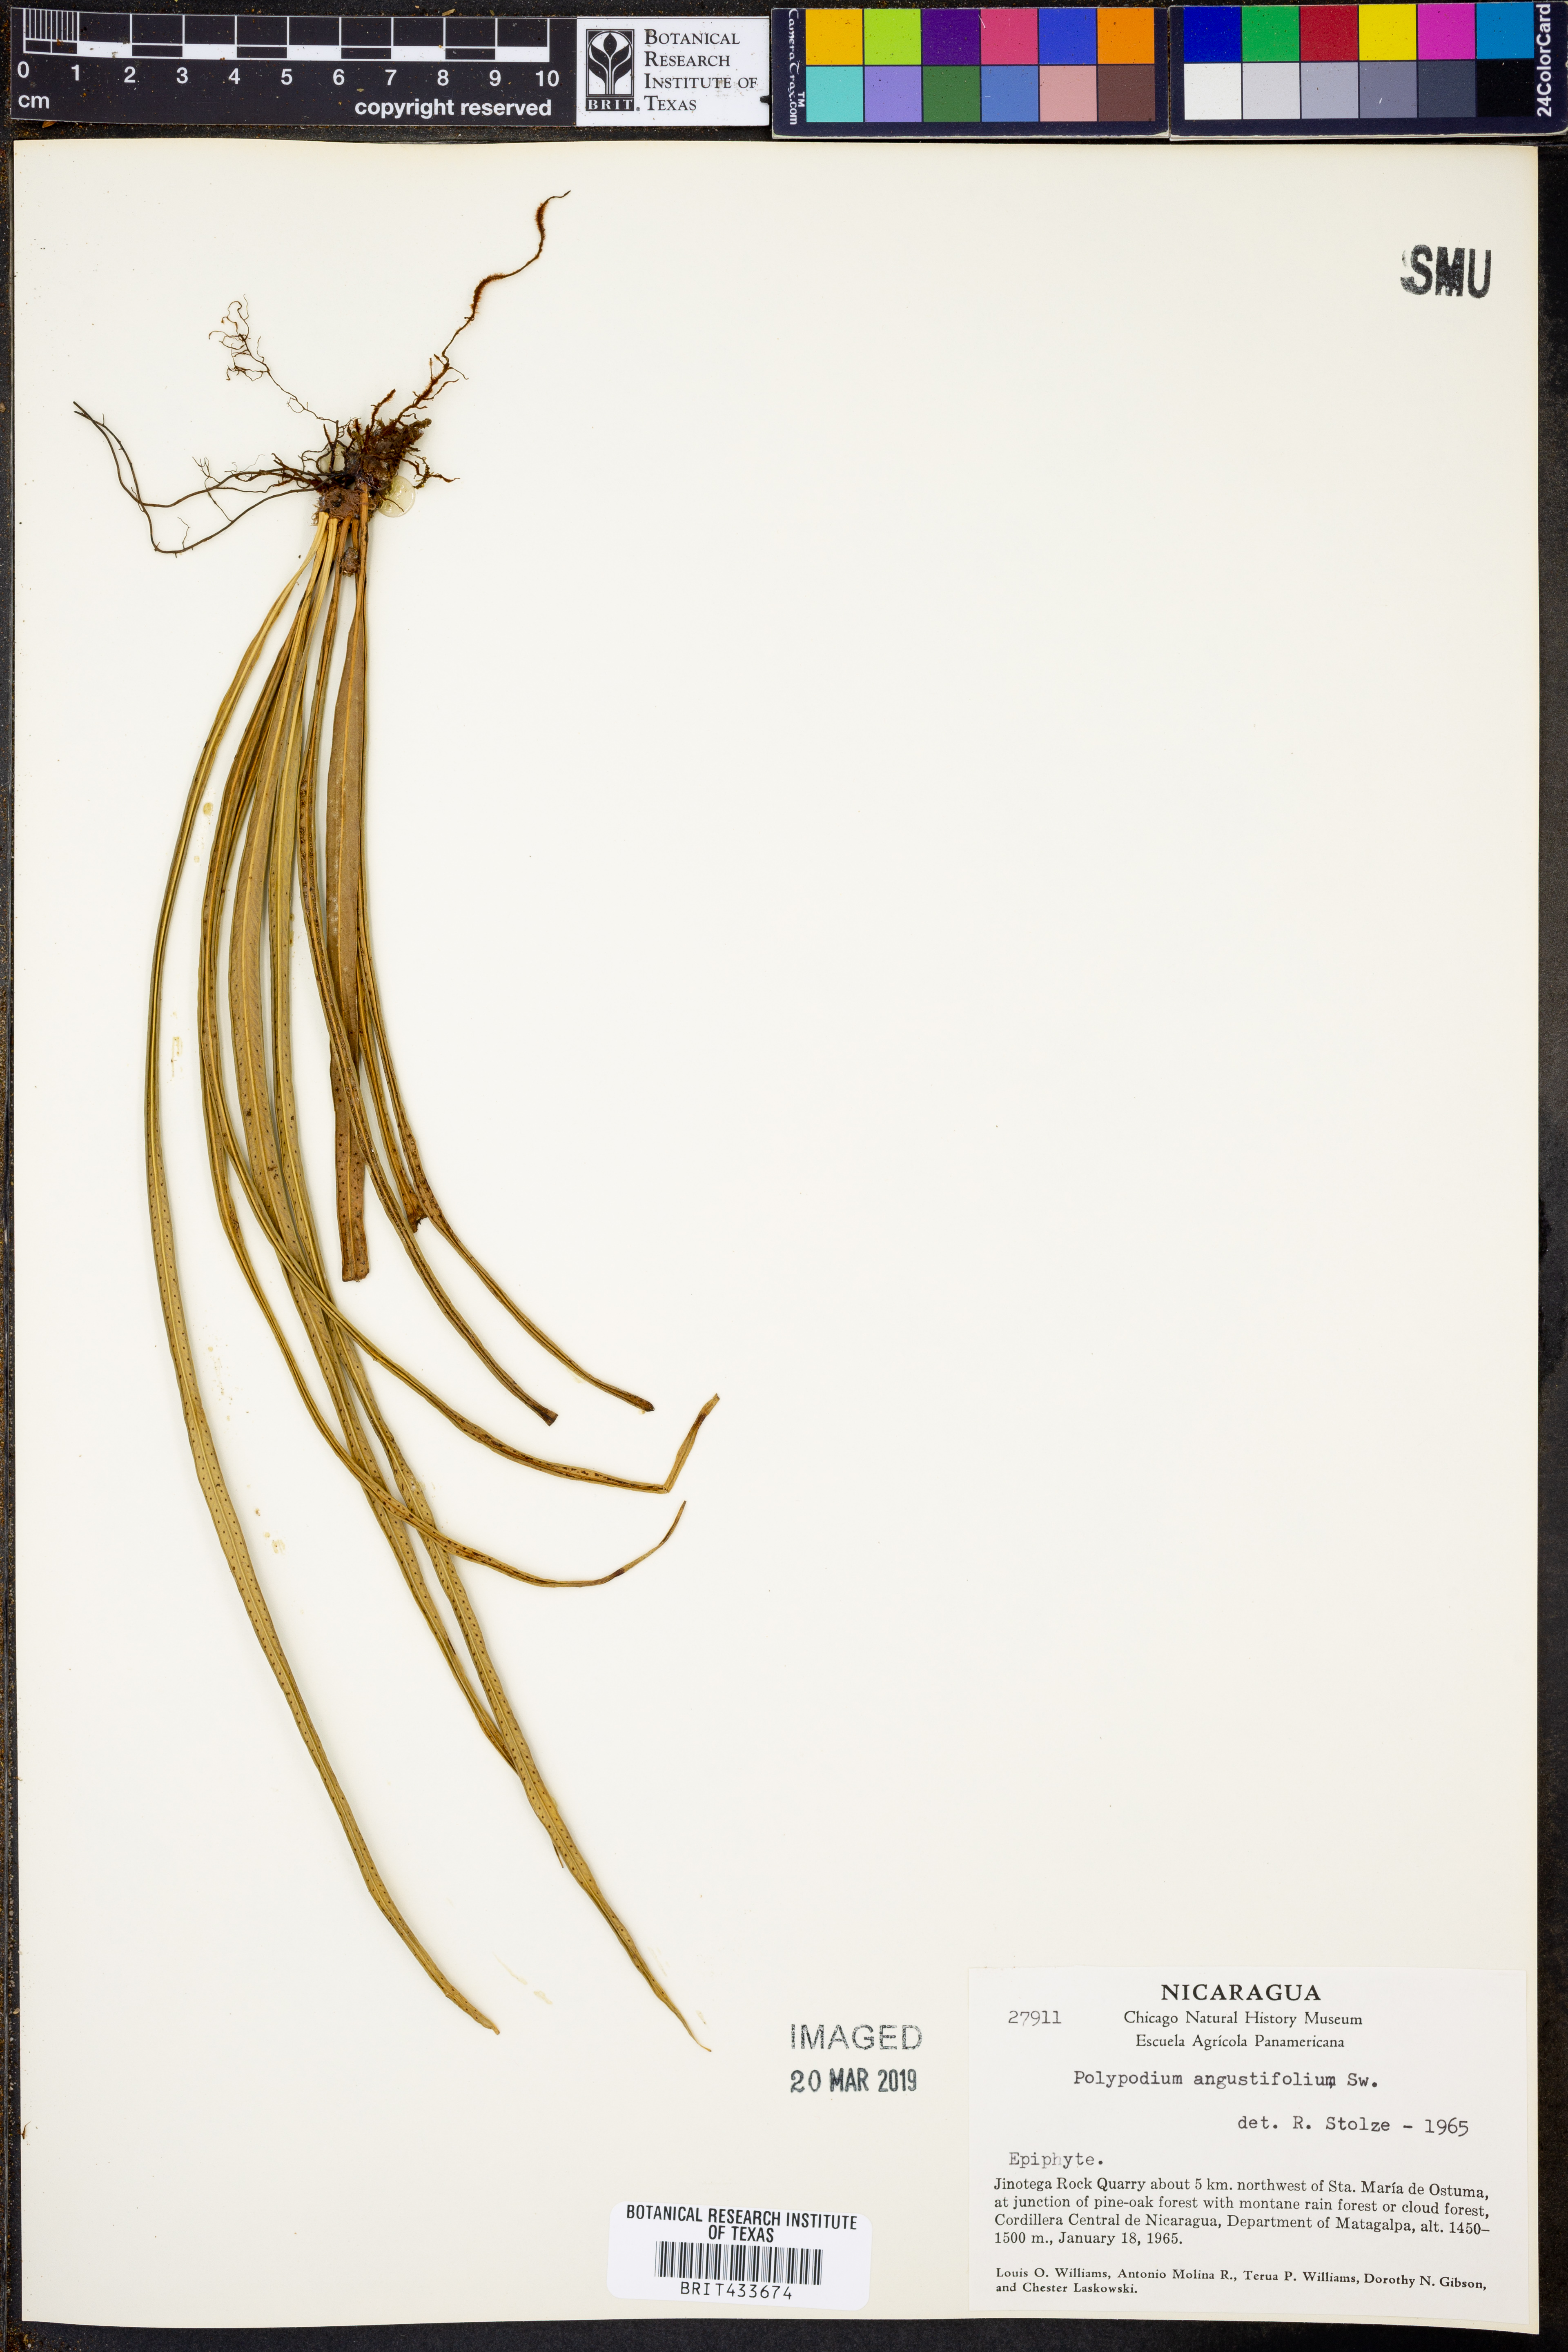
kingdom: Plantae
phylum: Tracheophyta
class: Polypodiopsida
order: Polypodiales
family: Polypodiaceae
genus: Campyloneurum
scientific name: Campyloneurum angustifolium
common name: Narrow-leaf strap fern
